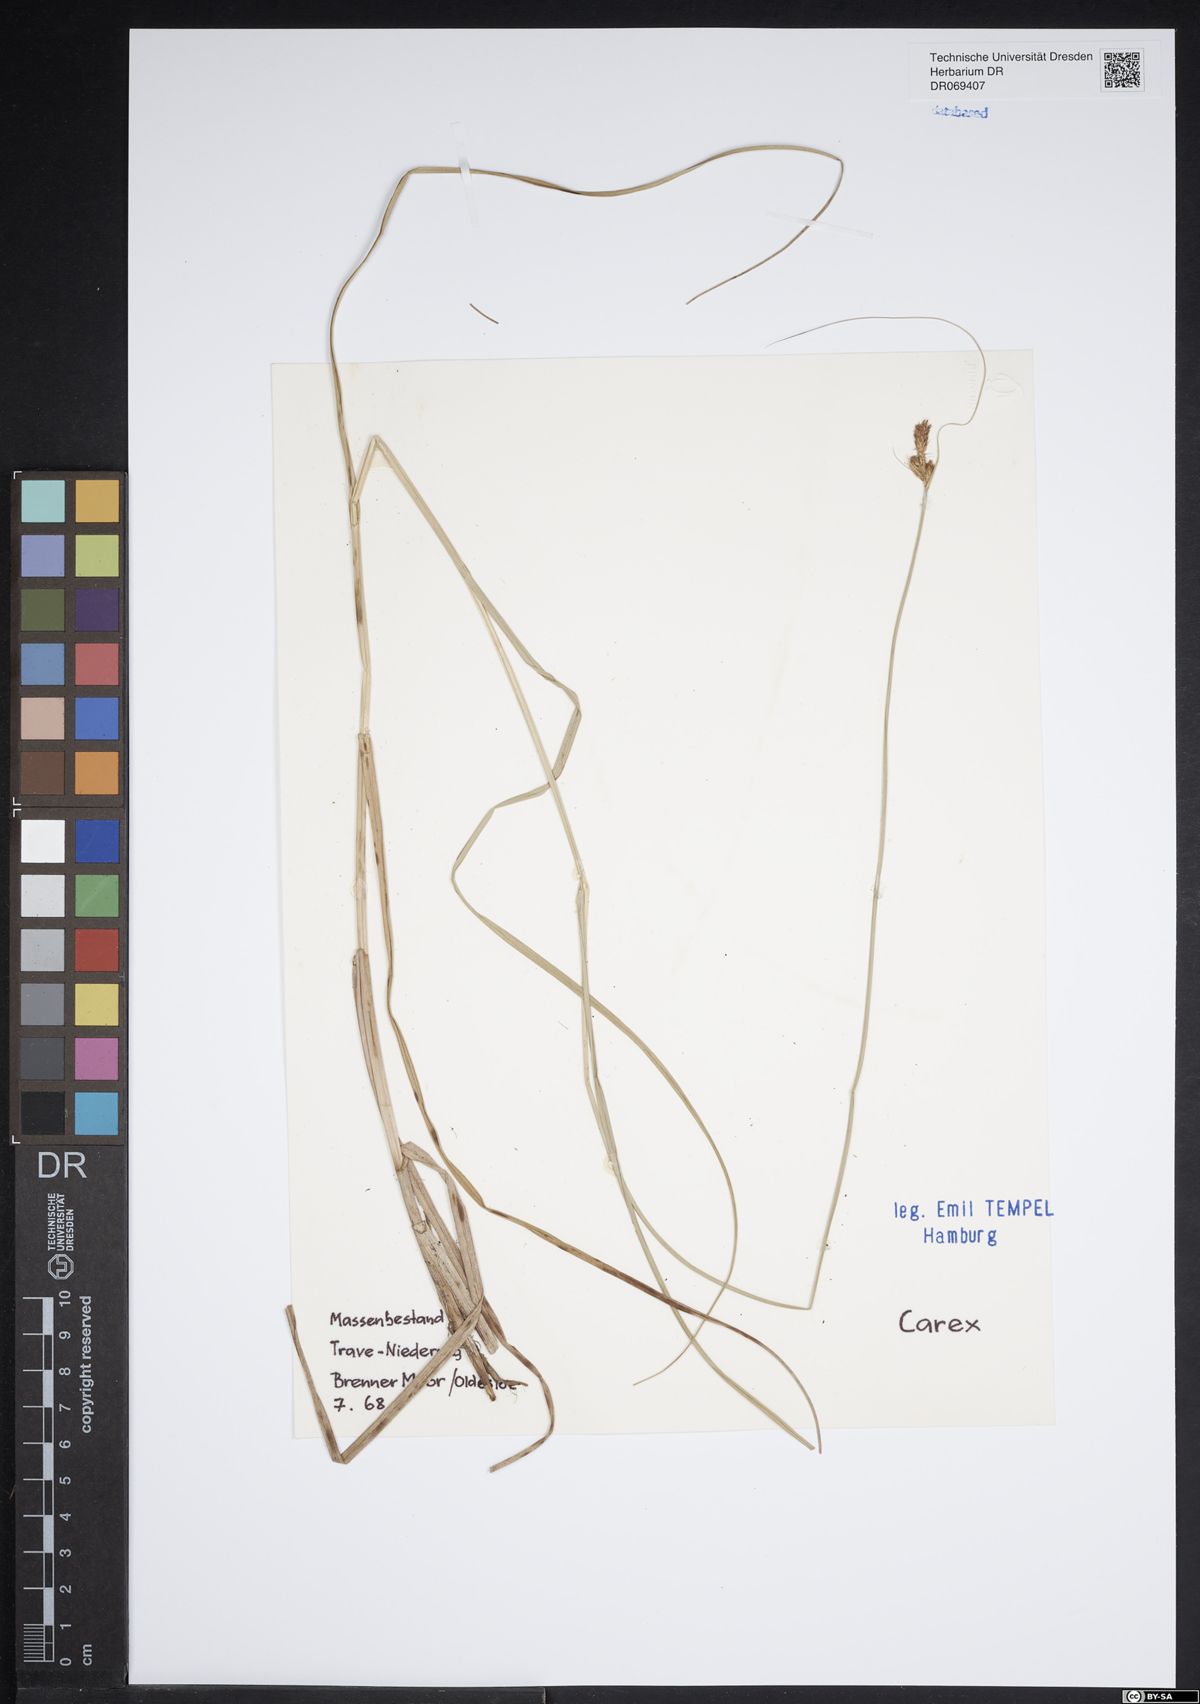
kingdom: Plantae
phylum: Tracheophyta
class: Liliopsida
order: Poales
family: Cyperaceae
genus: Carex
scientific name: Carex
